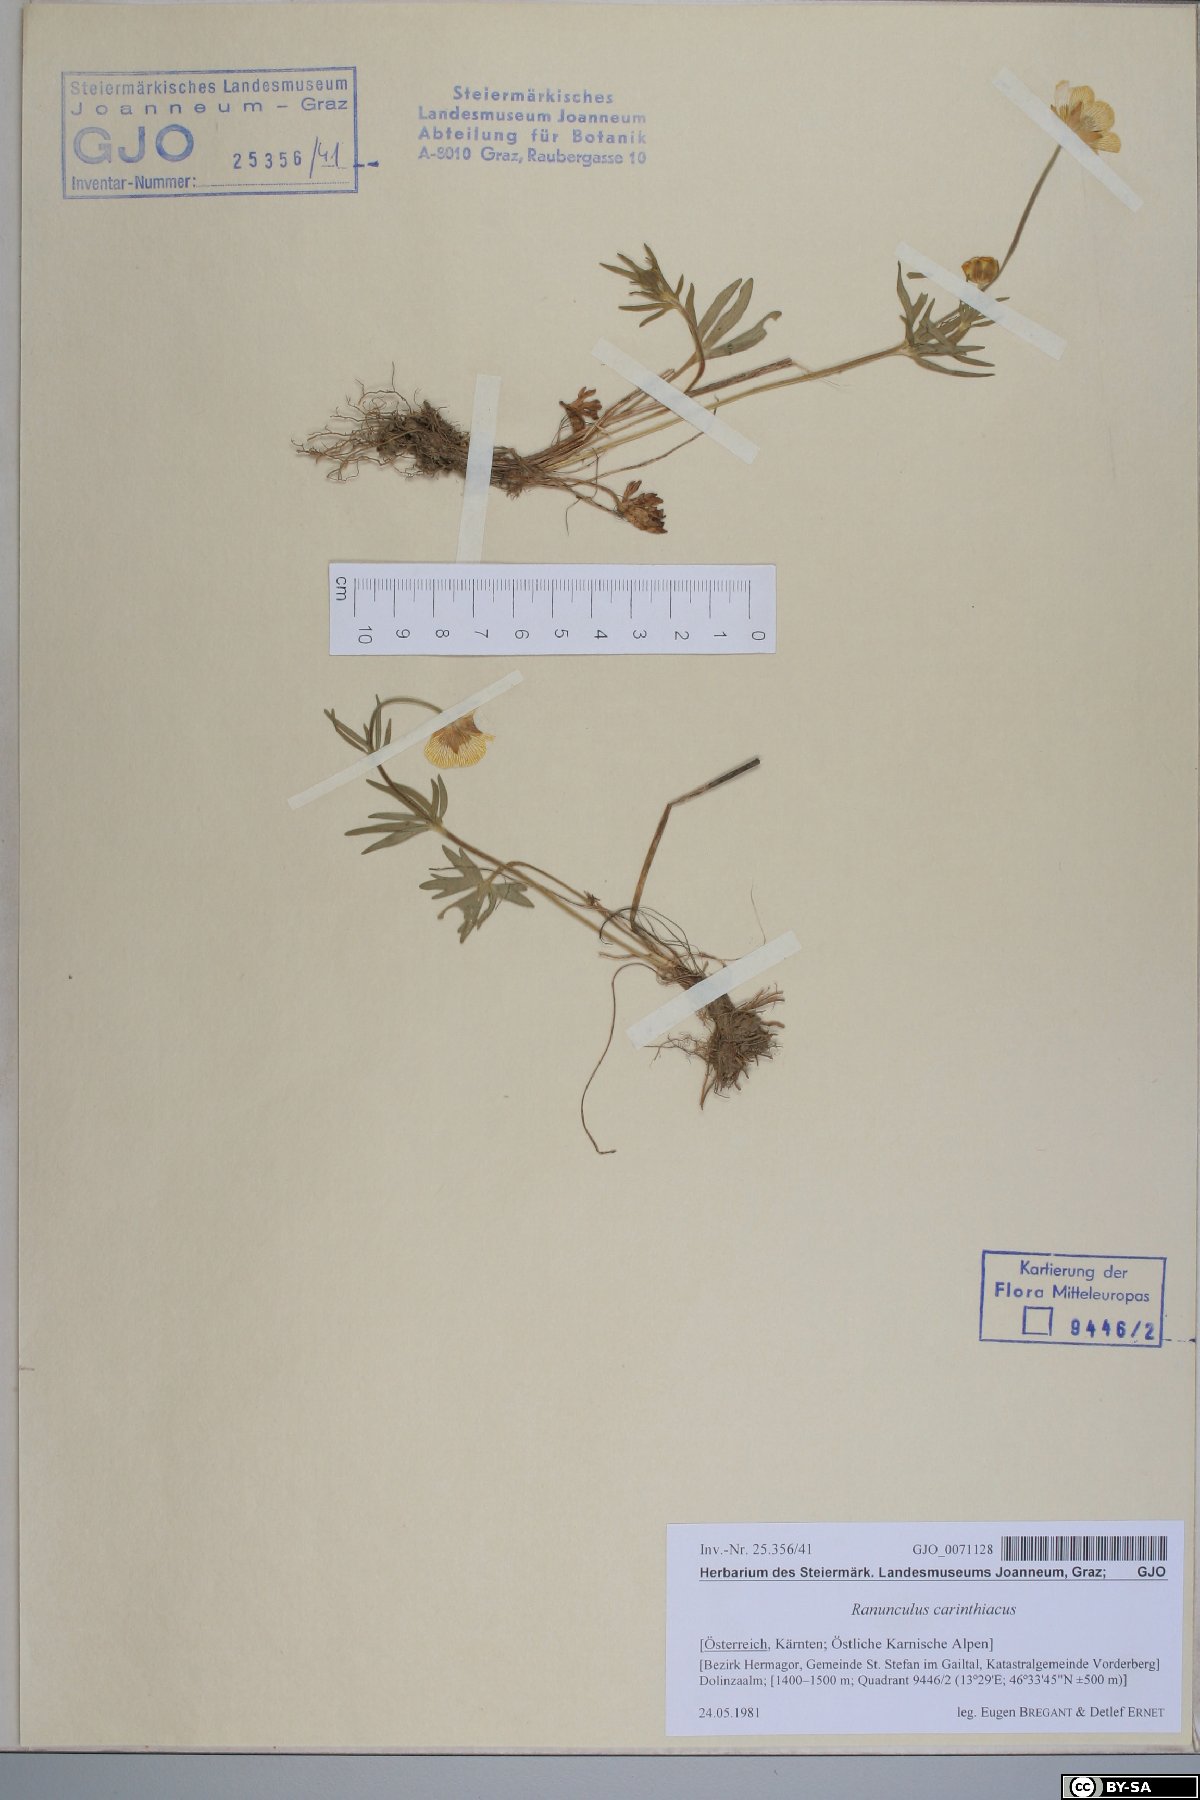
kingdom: Plantae
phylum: Tracheophyta
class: Magnoliopsida
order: Ranunculales
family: Ranunculaceae
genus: Ranunculus
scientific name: Ranunculus carinthiacus
